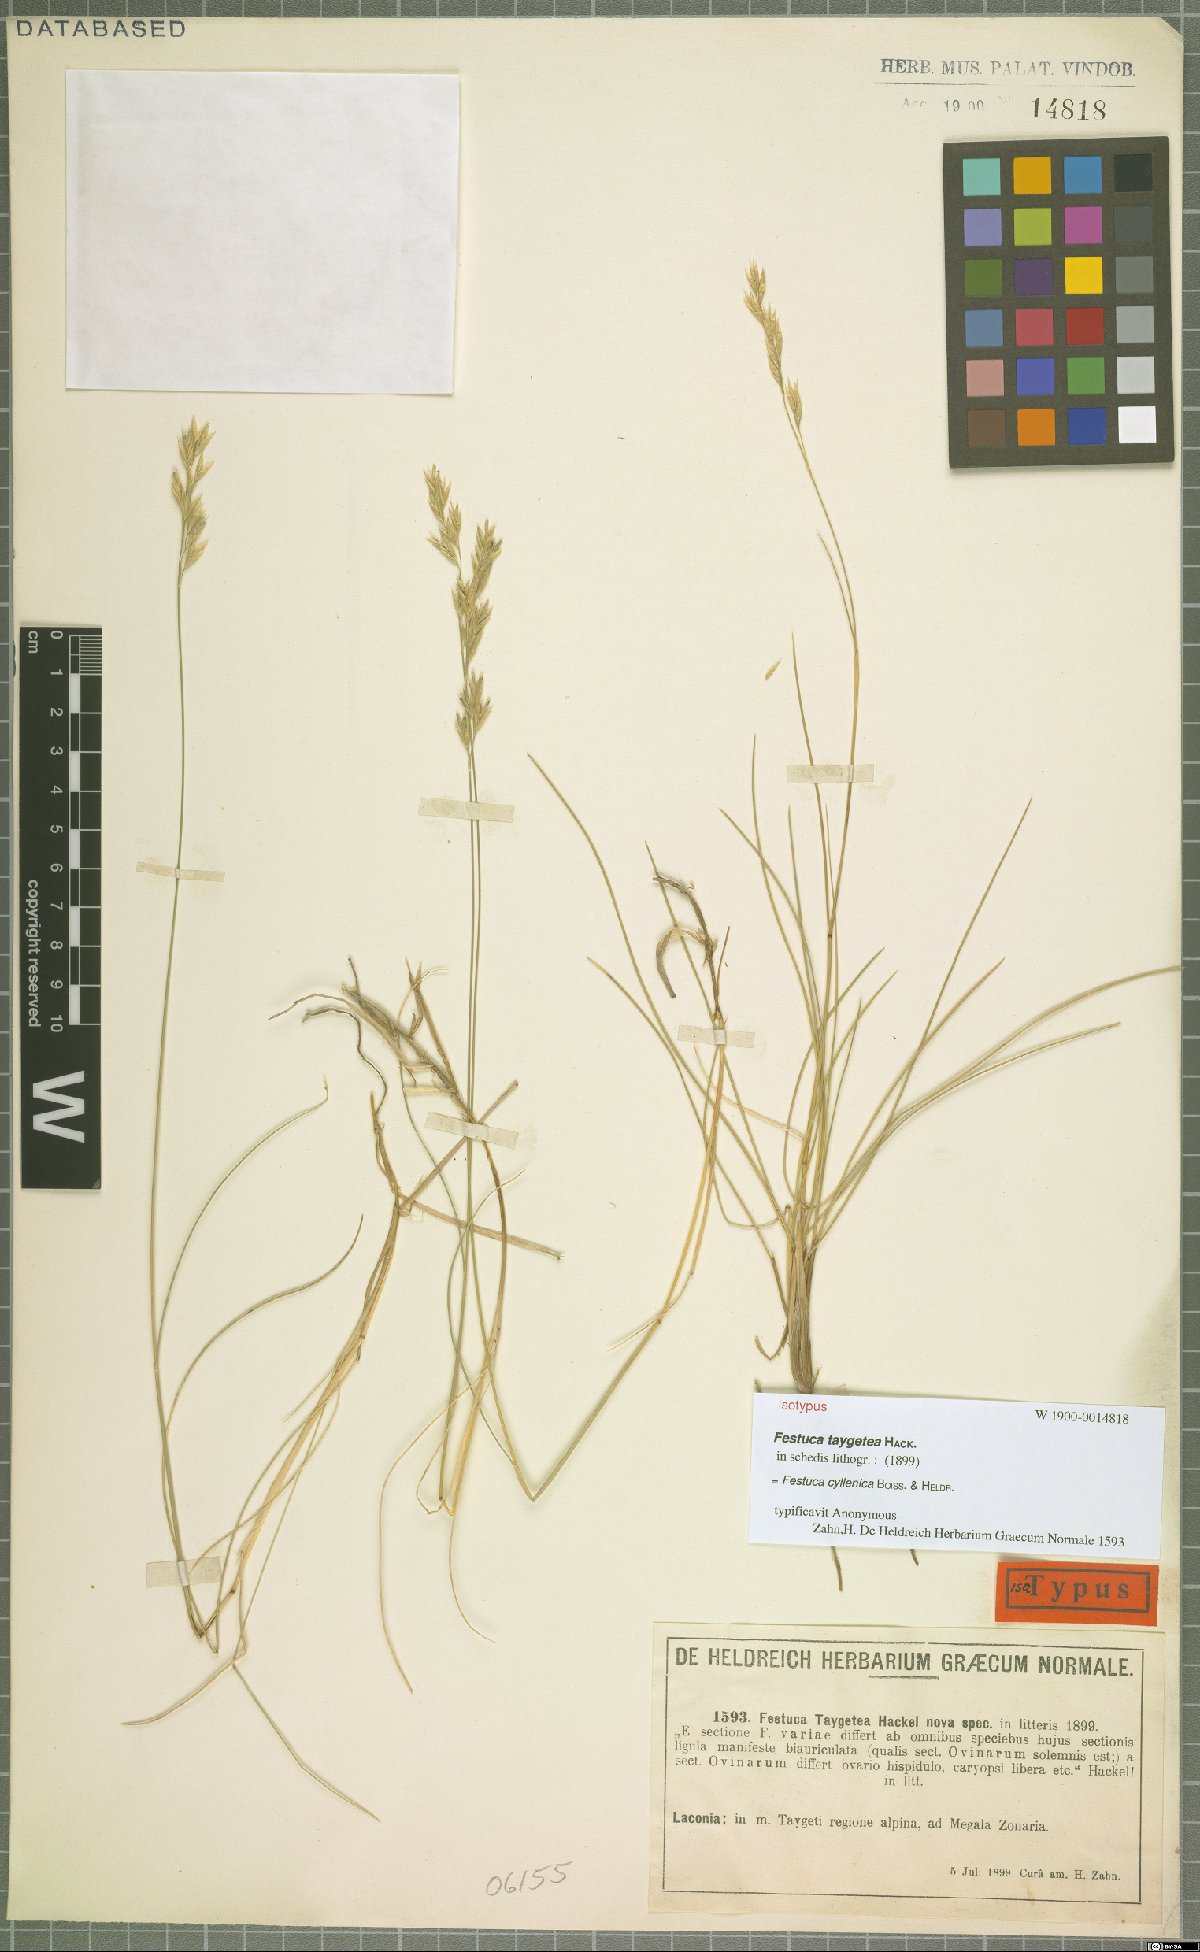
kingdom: Plantae
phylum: Tracheophyta
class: Liliopsida
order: Poales
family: Poaceae
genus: Festuca
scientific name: Festuca cyllenica
